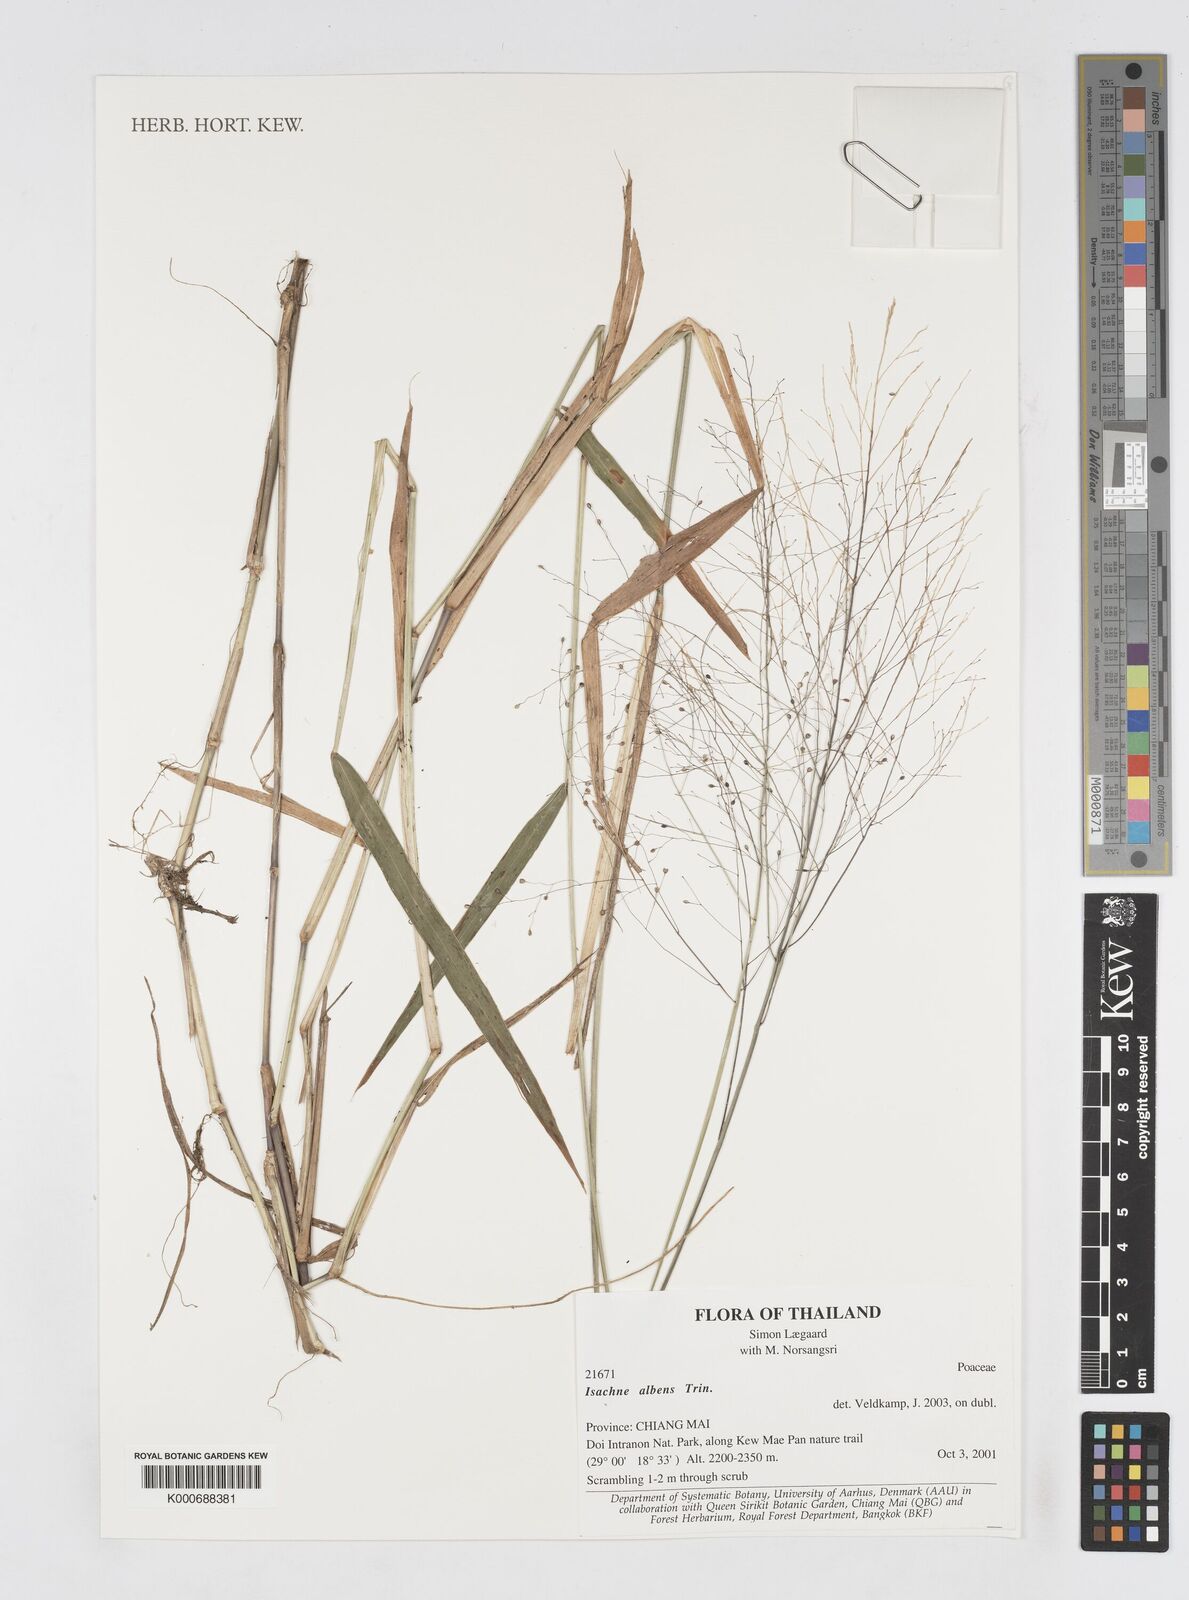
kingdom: Plantae
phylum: Tracheophyta
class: Liliopsida
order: Poales
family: Poaceae
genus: Isachne
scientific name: Isachne albens
